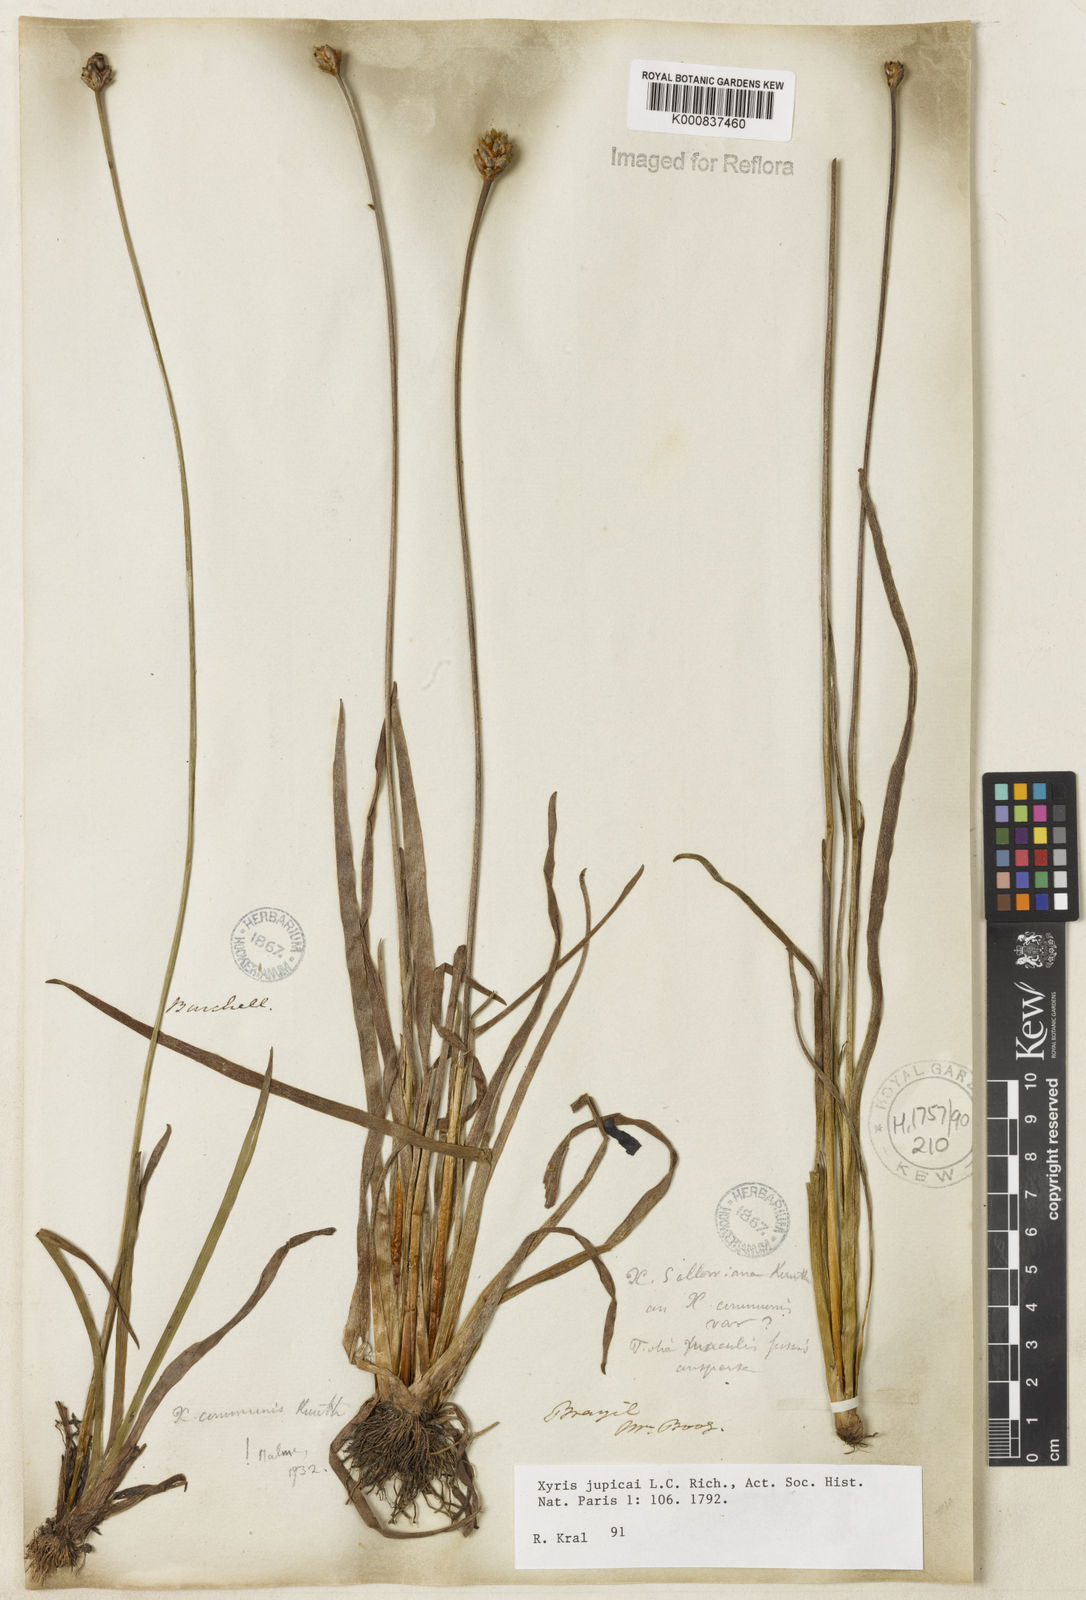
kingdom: Plantae
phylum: Tracheophyta
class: Liliopsida
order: Poales
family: Xyridaceae
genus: Xyris
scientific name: Xyris jupicai
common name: Richard's yelloweyed grass
